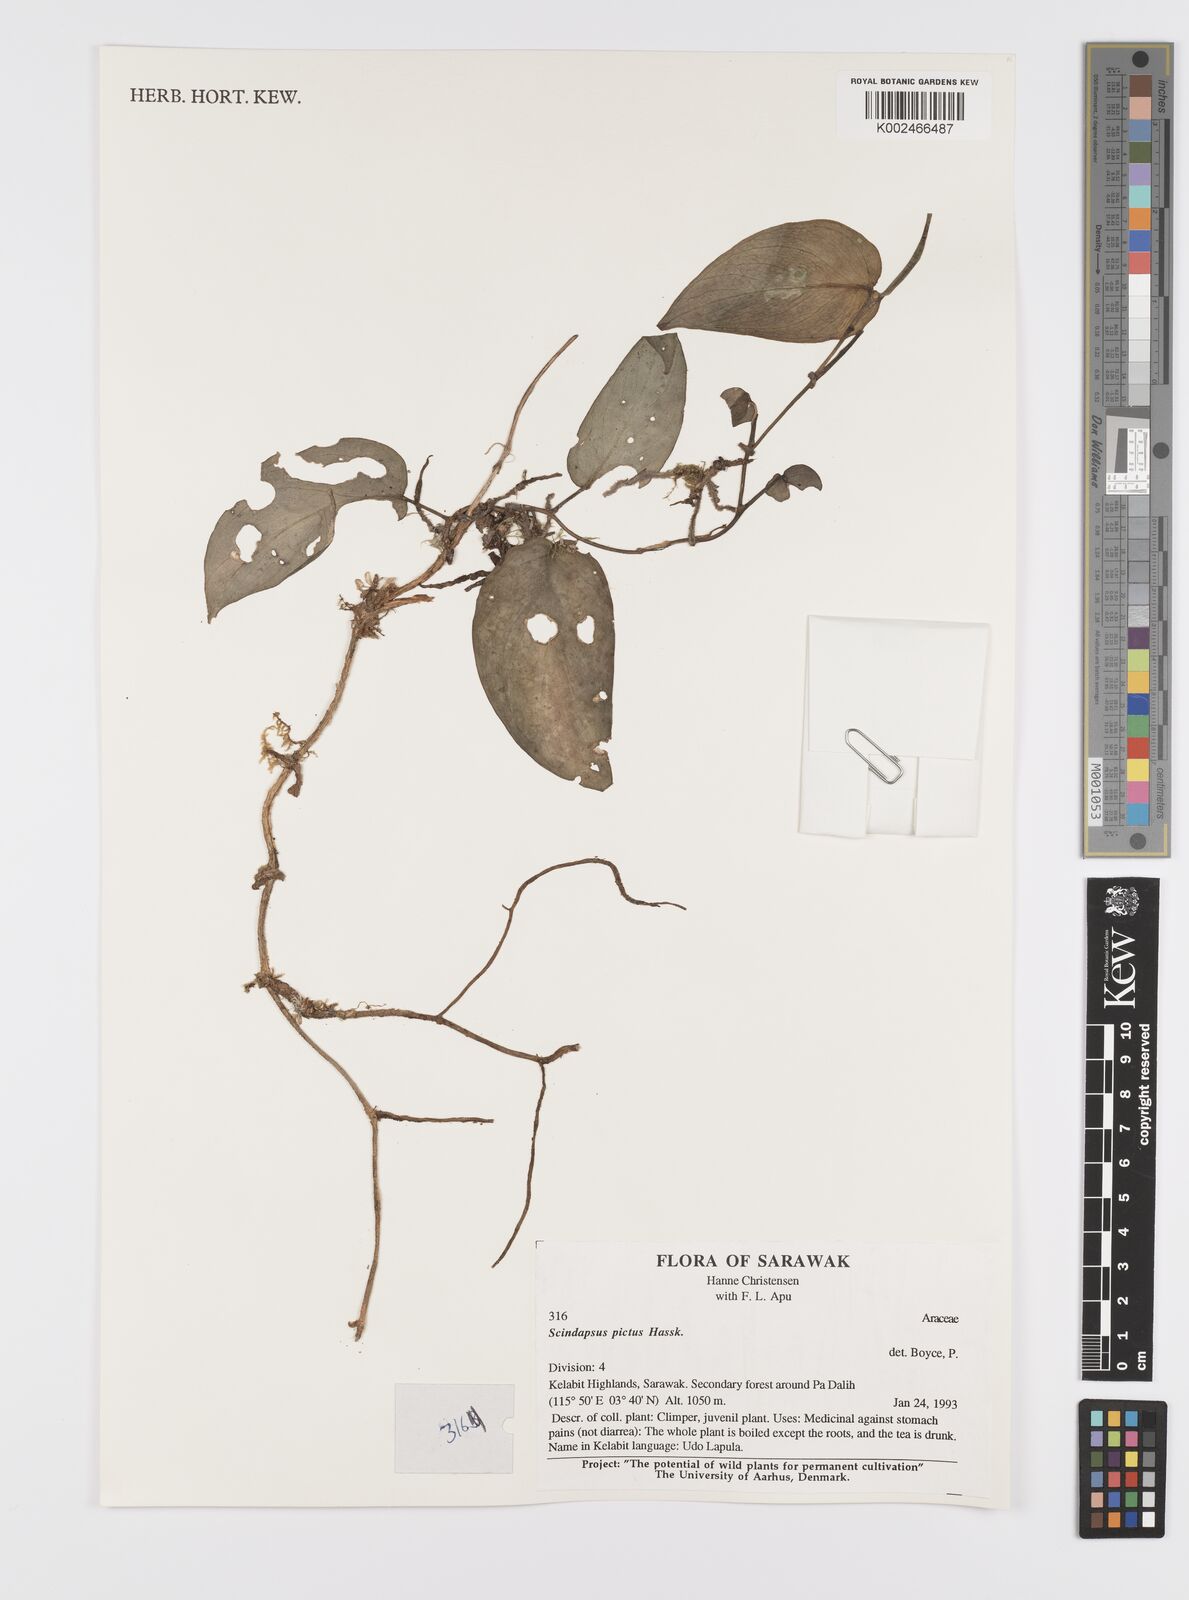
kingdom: Plantae
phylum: Tracheophyta
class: Liliopsida
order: Alismatales
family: Araceae
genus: Scindapsus
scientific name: Scindapsus pictus
